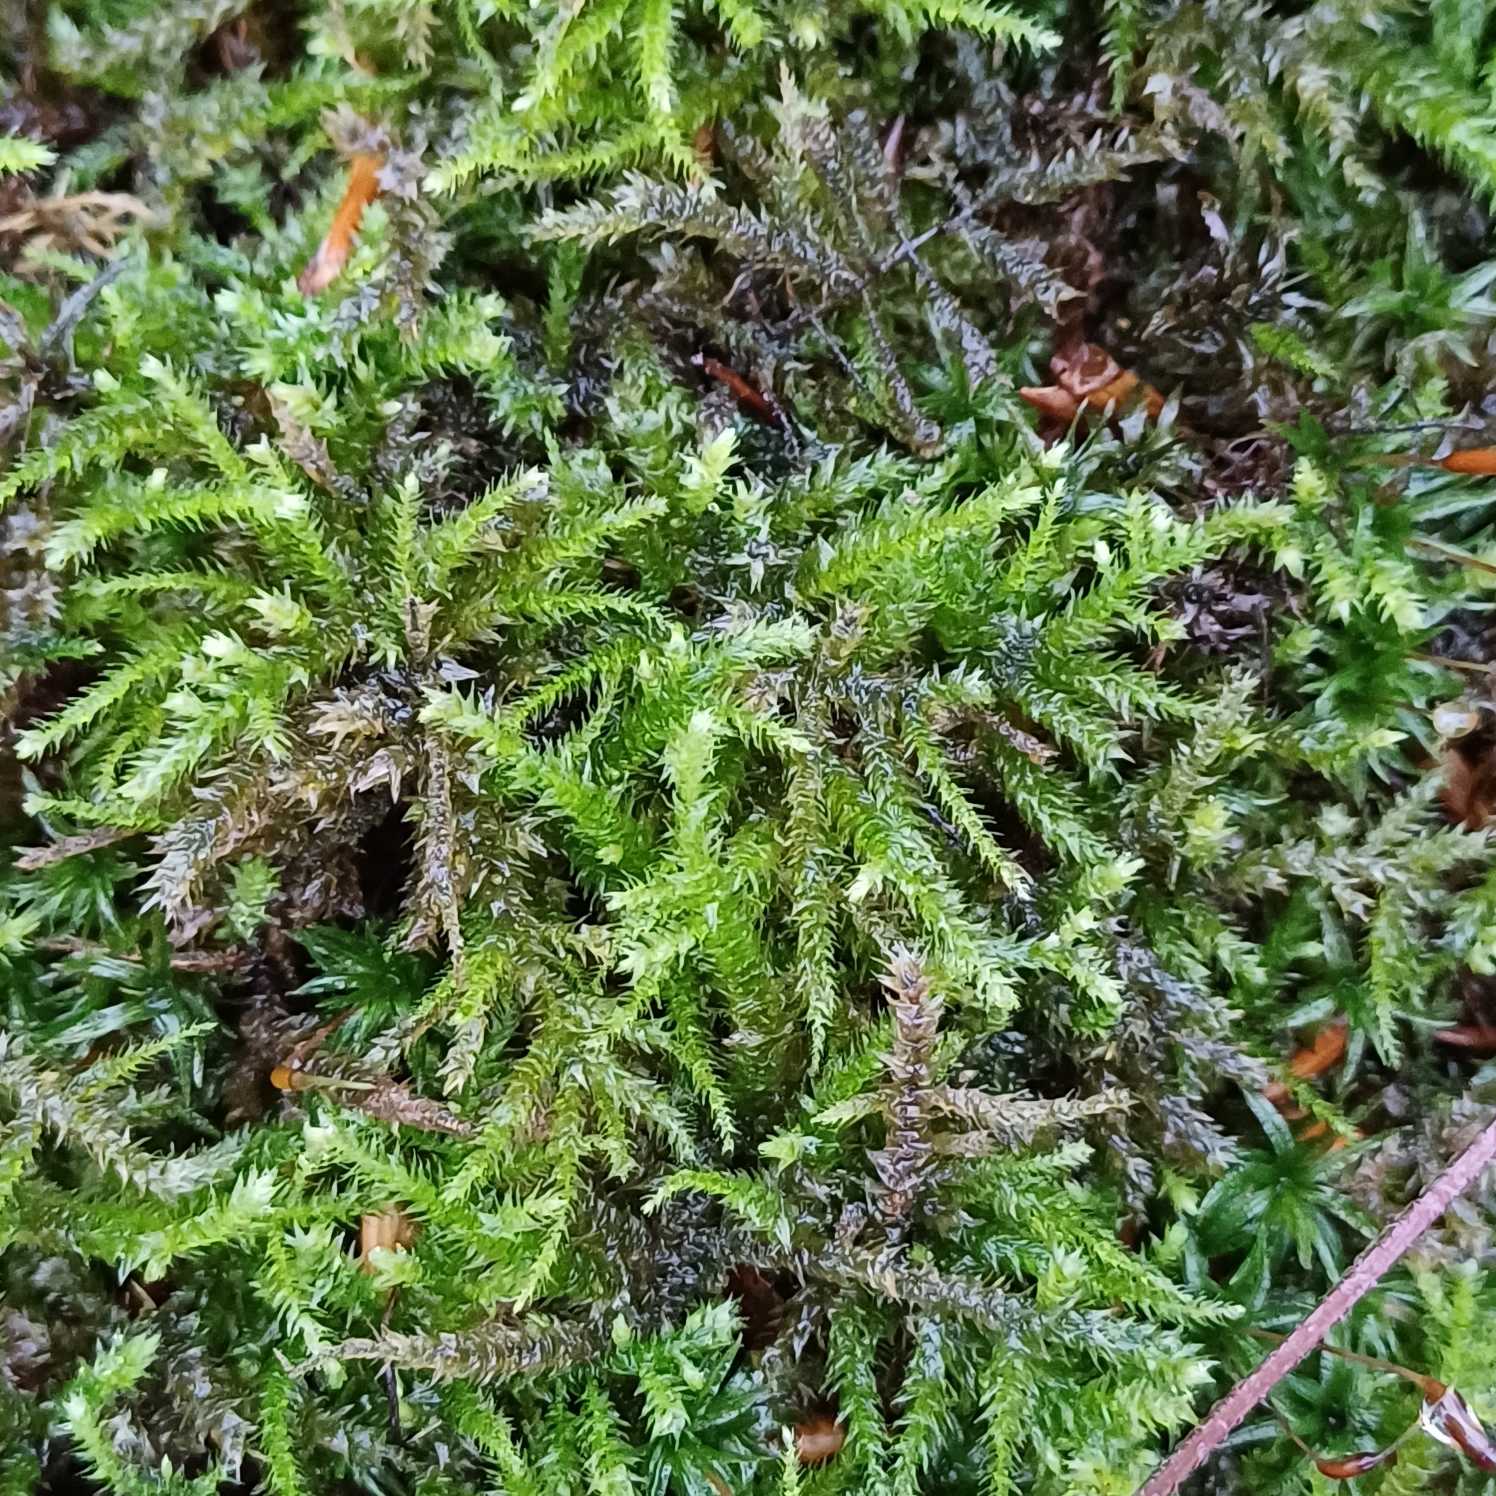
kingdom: Plantae
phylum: Bryophyta
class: Bryopsida
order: Hypnales
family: Brachytheciaceae
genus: Eurhynchium
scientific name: Eurhynchium striatum
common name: Stribet næbmos
